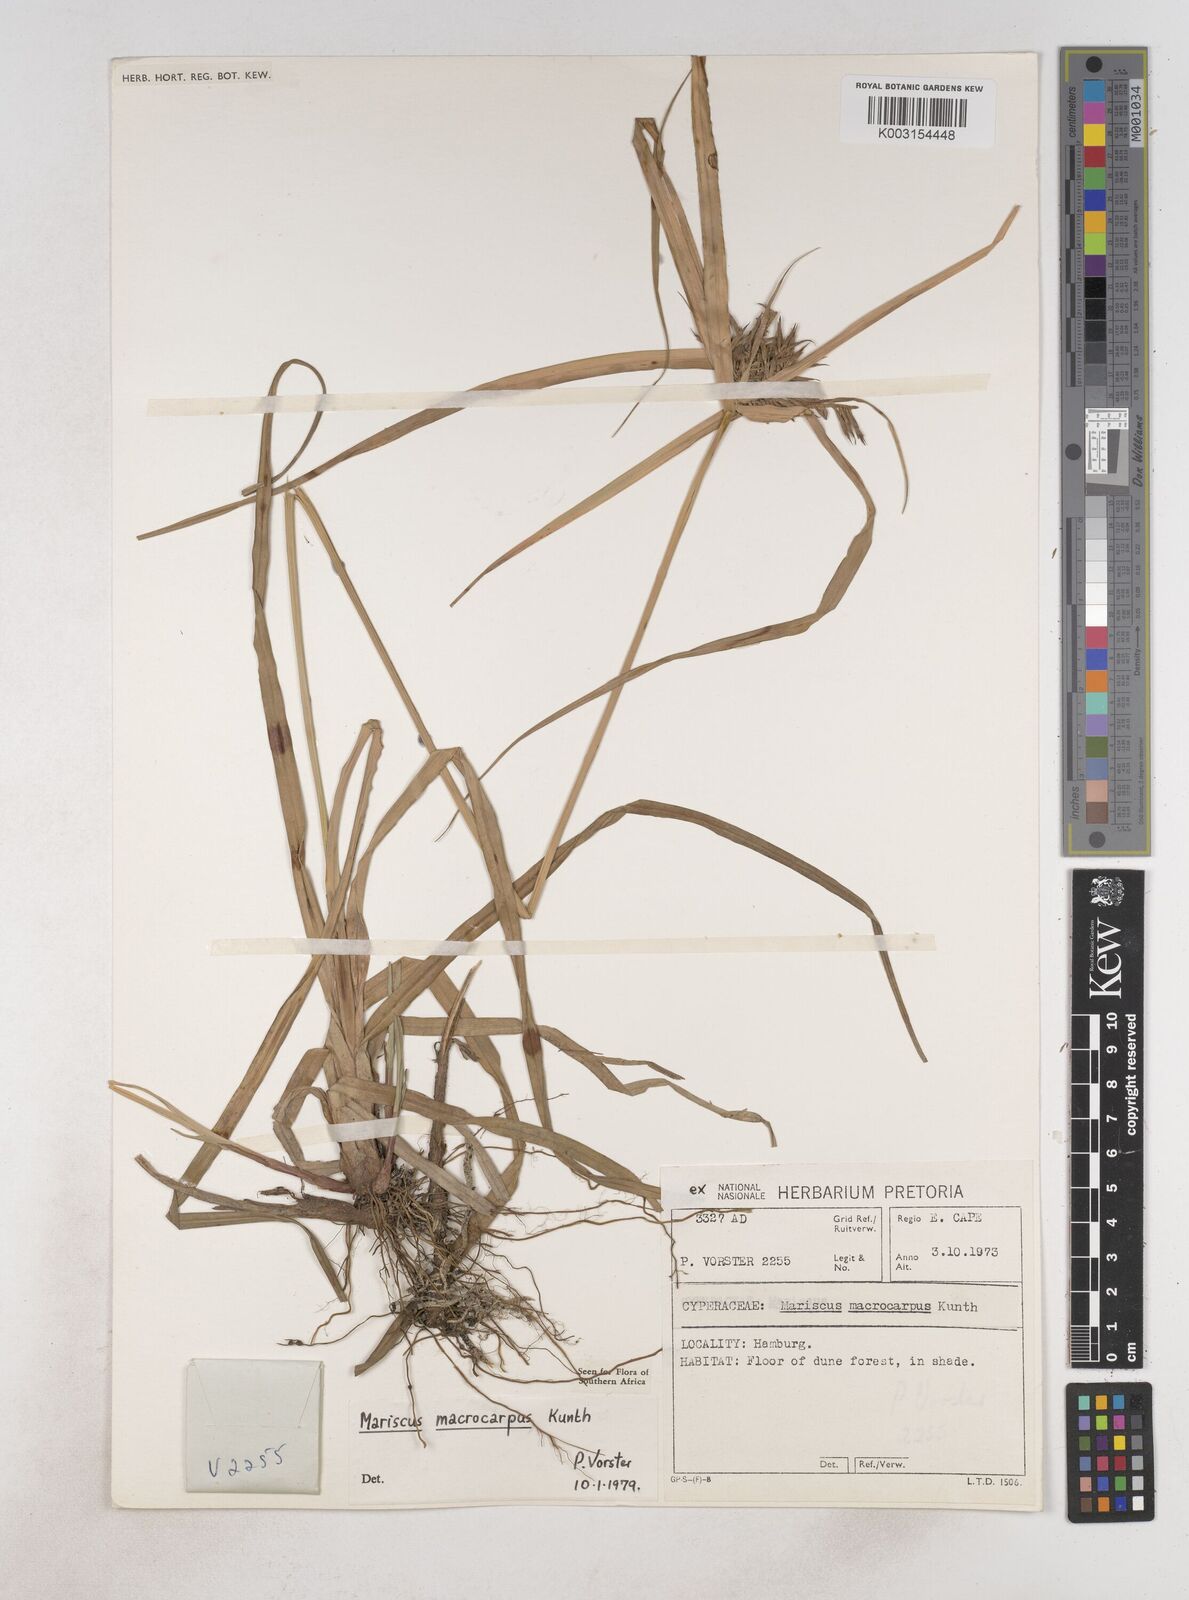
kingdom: Plantae
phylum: Tracheophyta
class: Liliopsida
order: Poales
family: Cyperaceae
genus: Cyperus
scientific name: Cyperus macrocarpus
